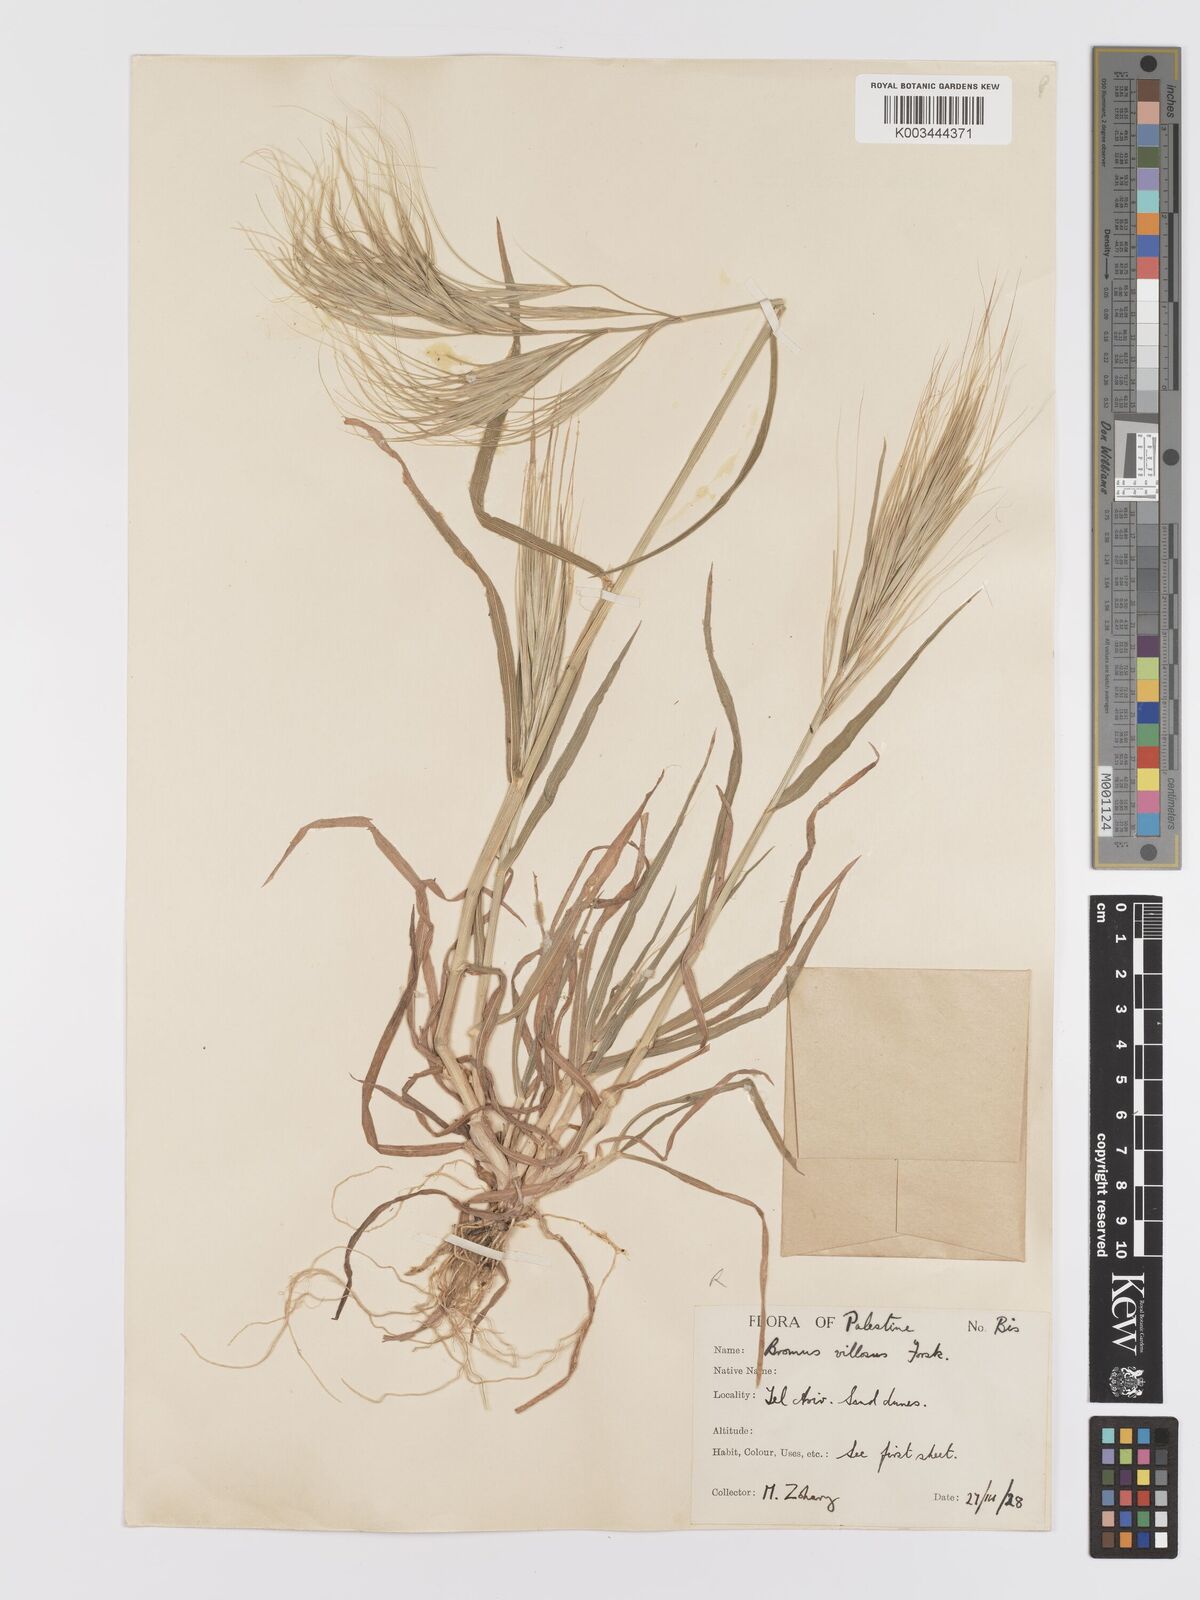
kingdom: Plantae
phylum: Tracheophyta
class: Liliopsida
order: Poales
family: Poaceae
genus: Bromus
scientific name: Bromus
